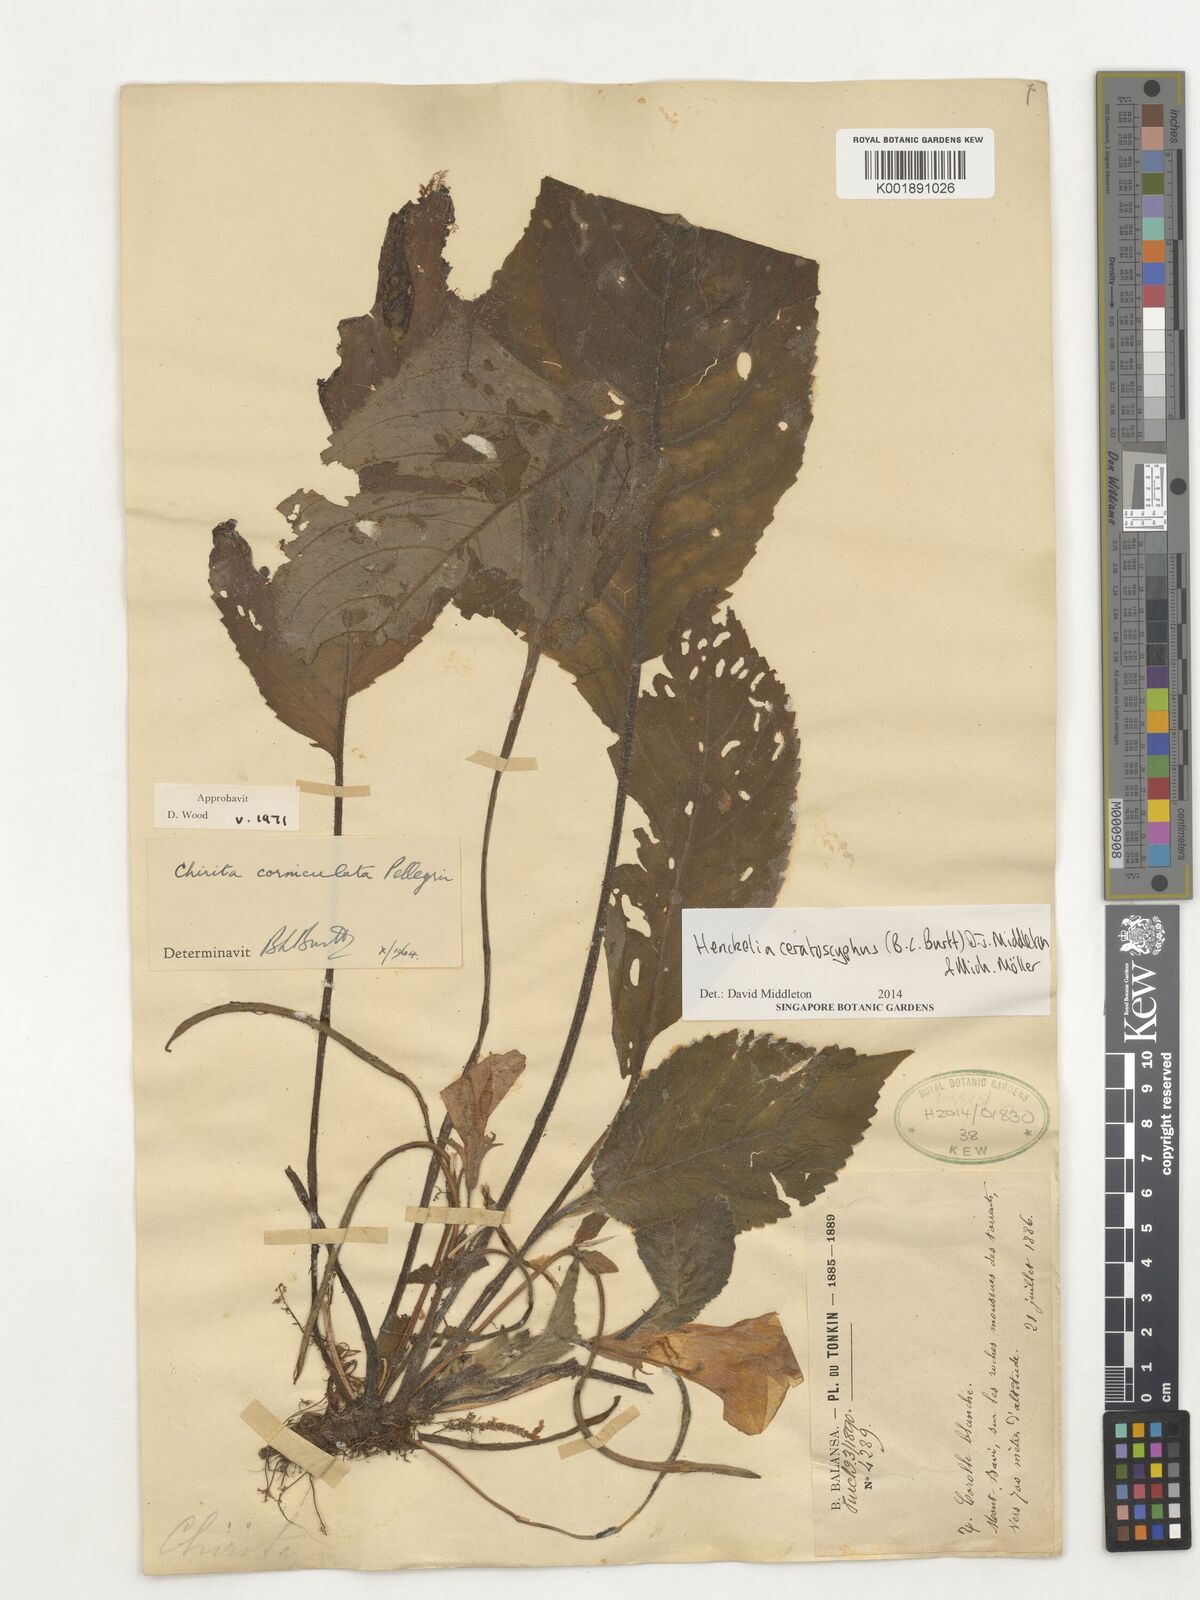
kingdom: Plantae
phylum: Tracheophyta
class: Magnoliopsida
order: Lamiales
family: Gesneriaceae
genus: Henckelia
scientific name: Henckelia ceratoscyphus
